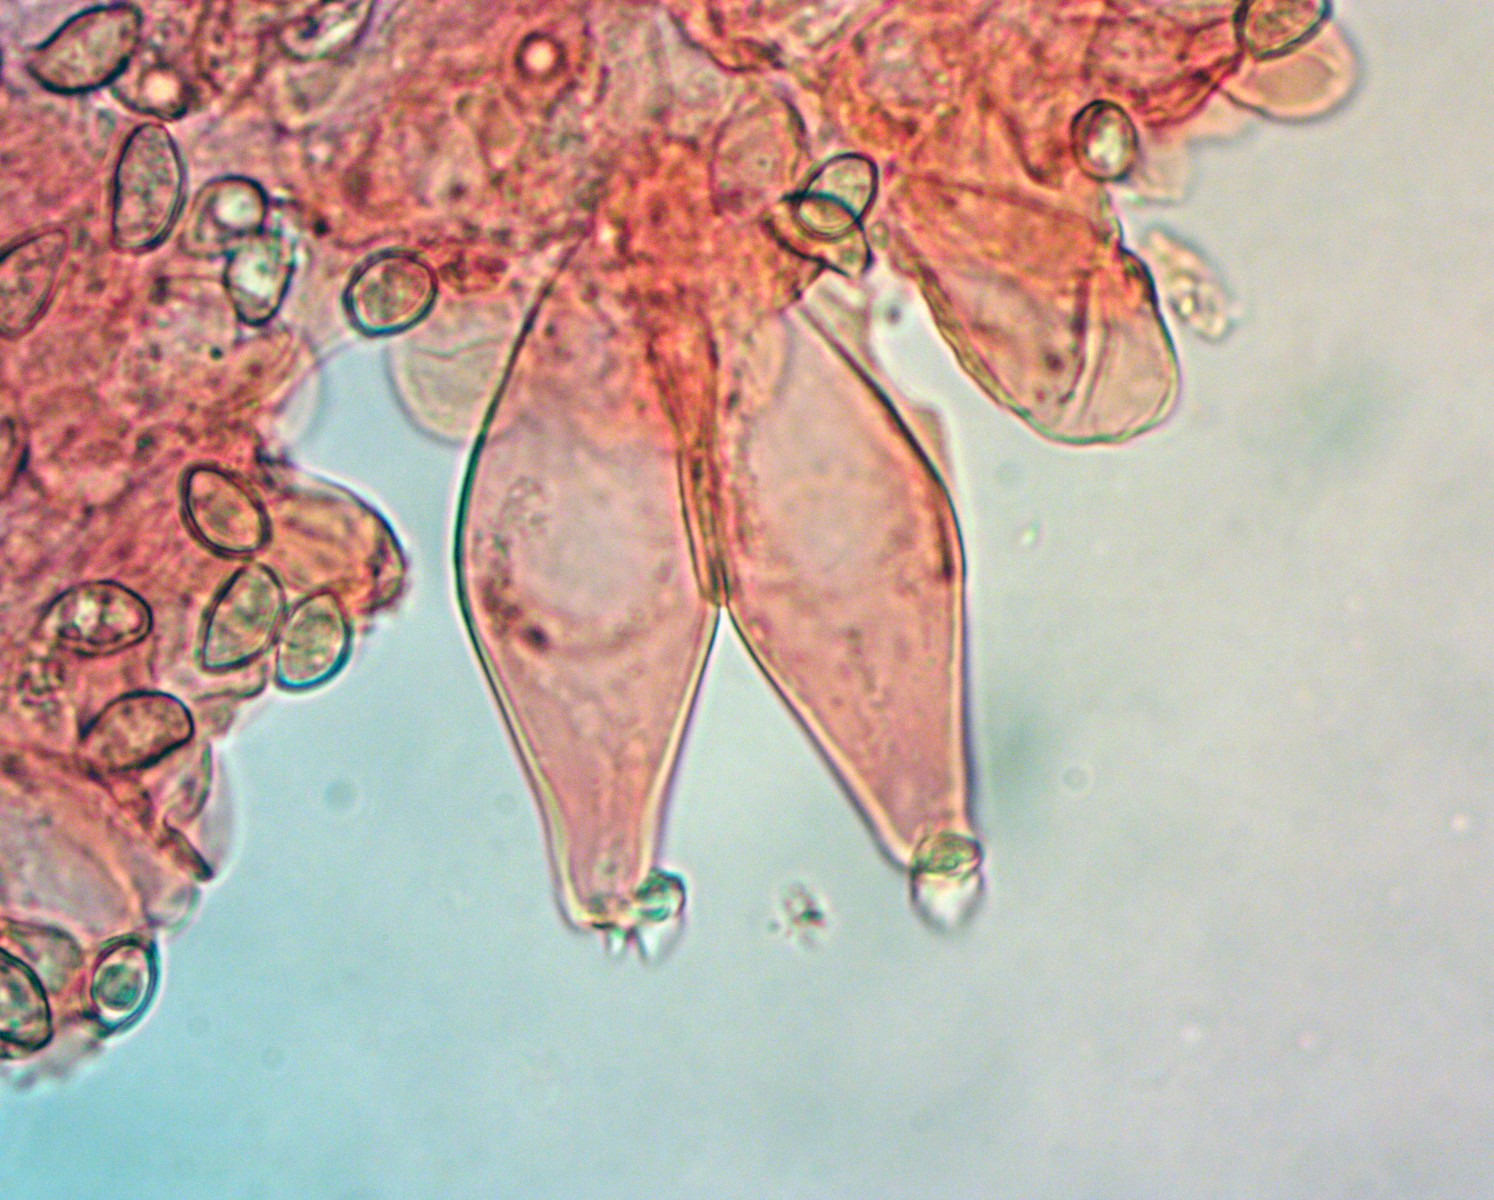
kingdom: Fungi
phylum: Basidiomycota
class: Agaricomycetes
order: Agaricales
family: Inocybaceae
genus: Inocybe
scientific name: Inocybe
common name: almindelig trævlhat
